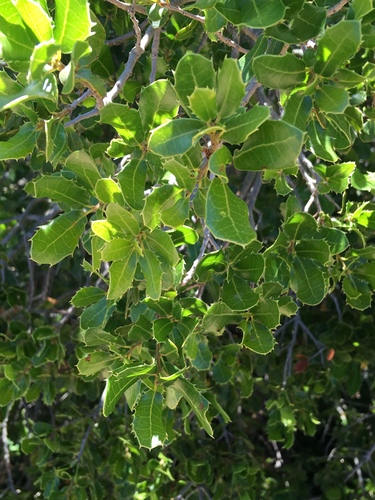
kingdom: Plantae
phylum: Tracheophyta
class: Magnoliopsida
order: Fagales
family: Fagaceae
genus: Quercus
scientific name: Quercus coccifera
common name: Kermes oak
